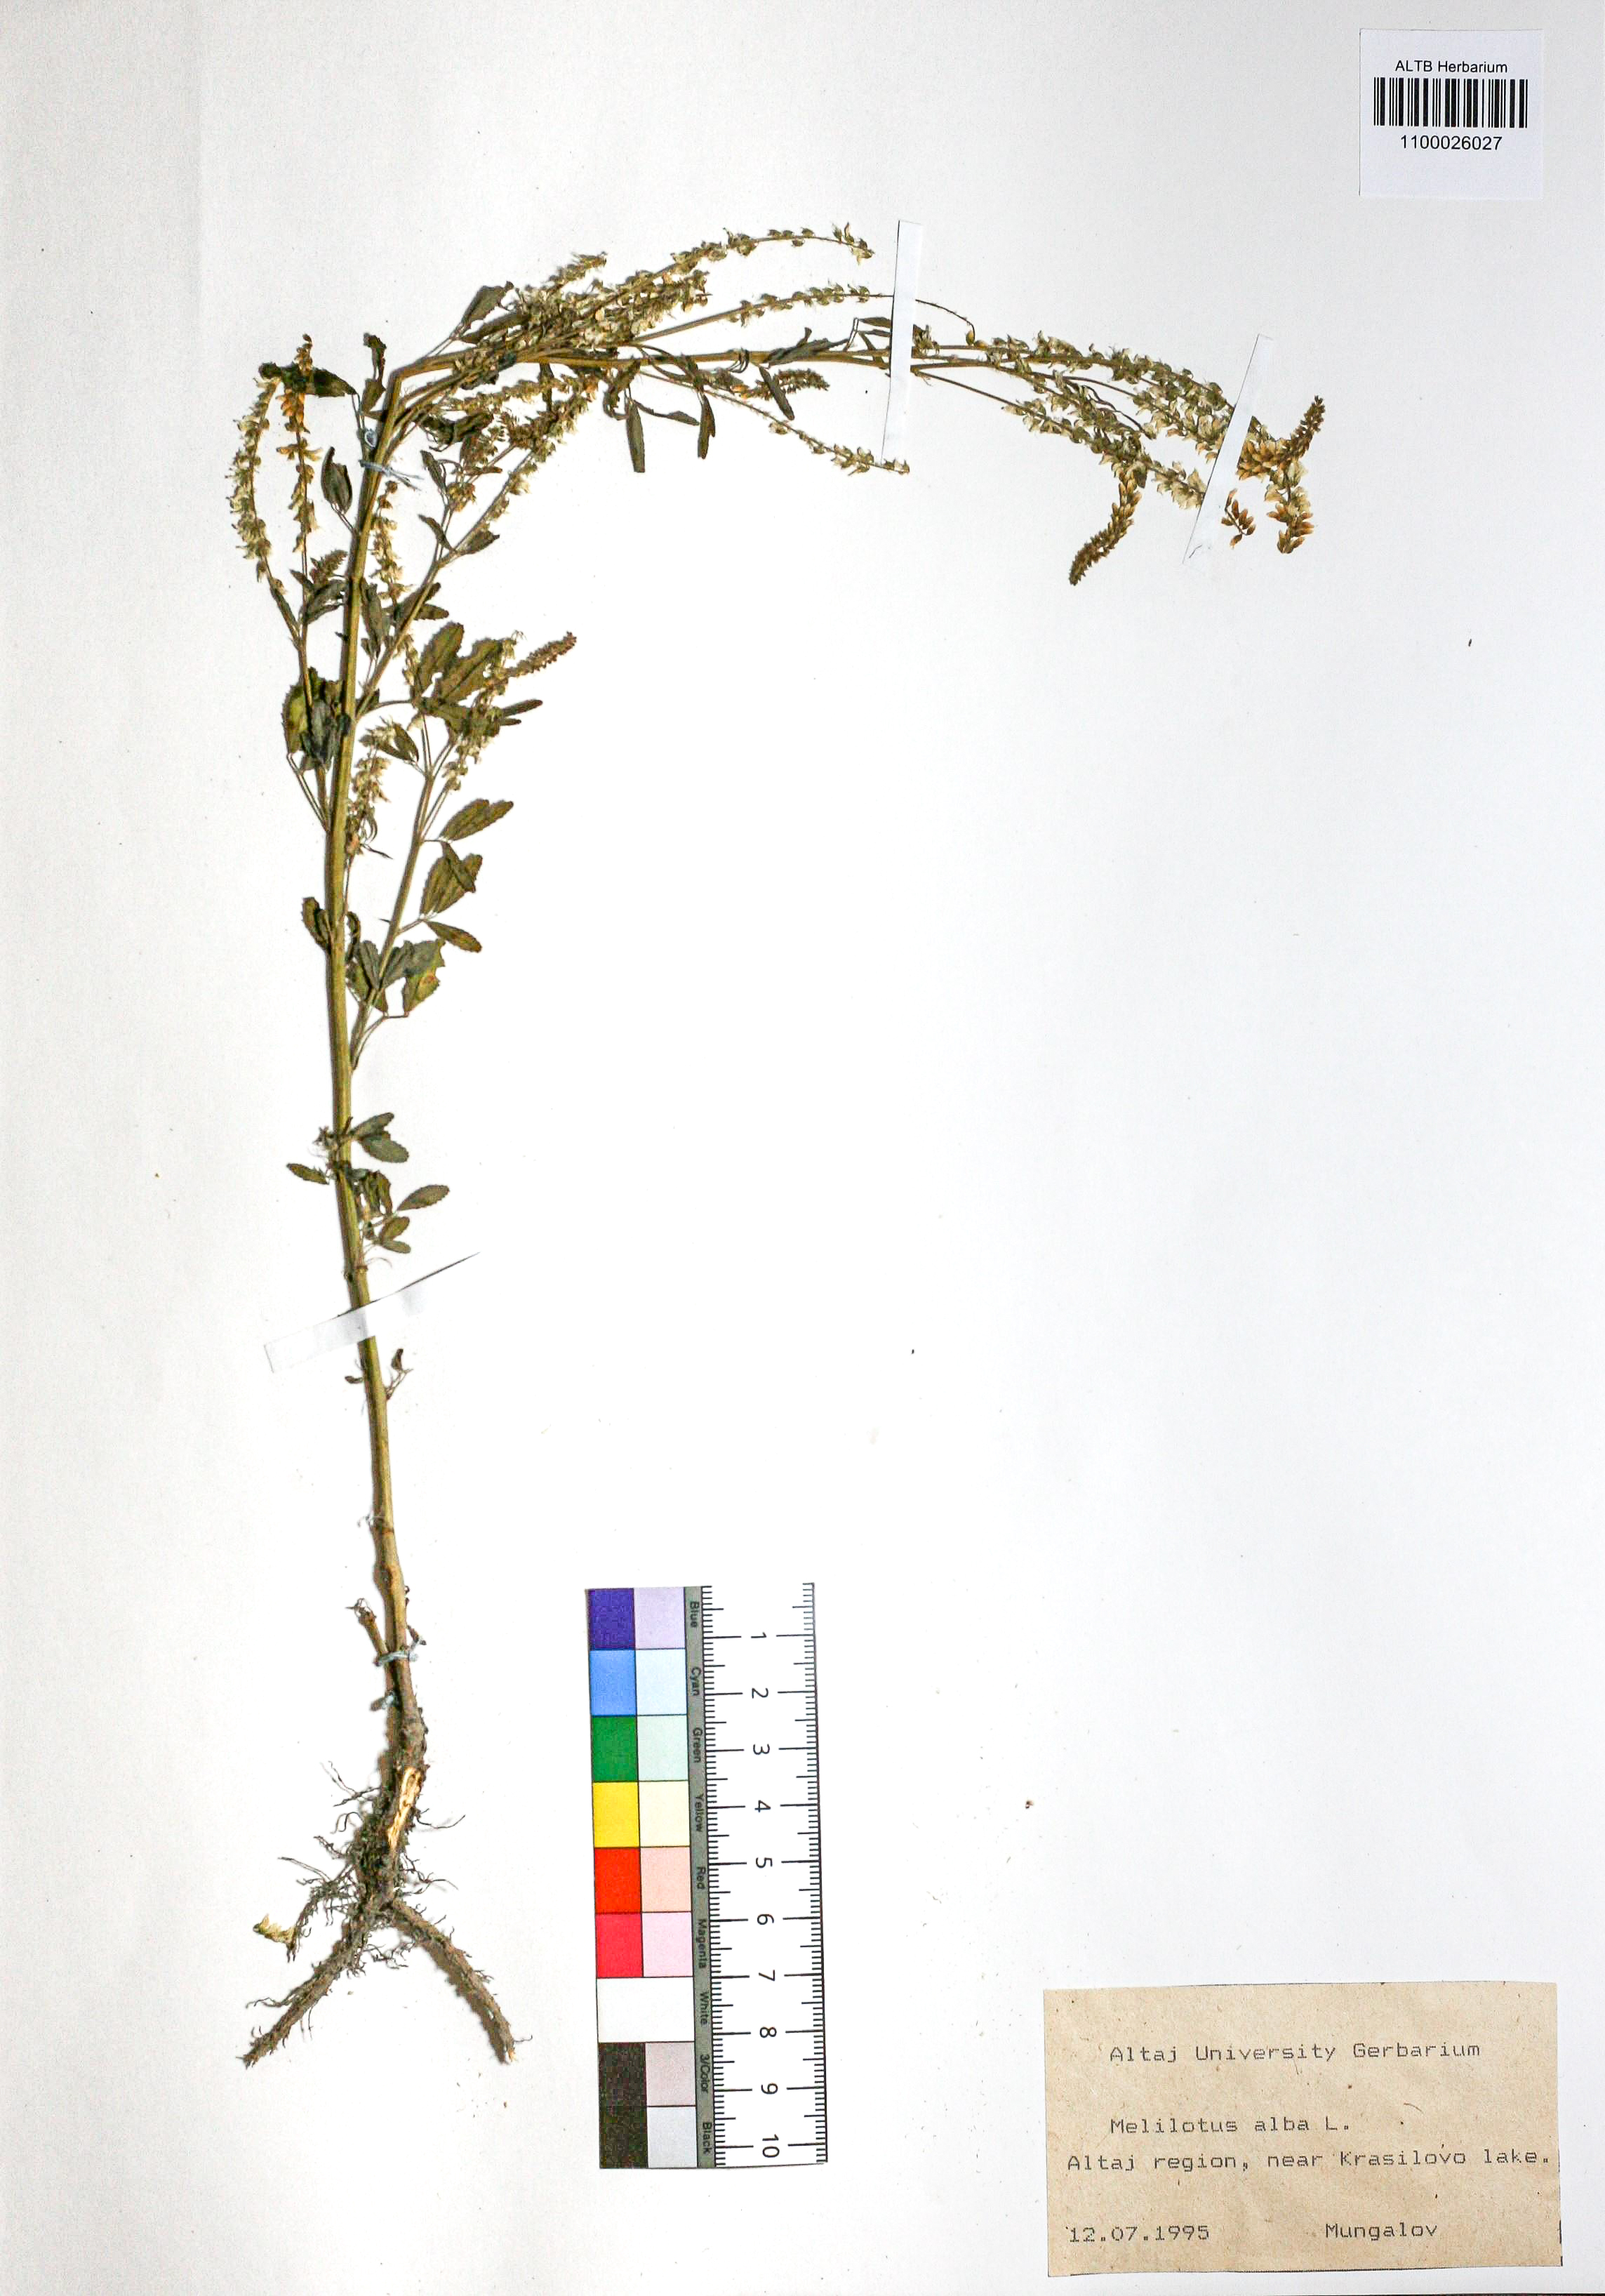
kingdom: Plantae
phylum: Tracheophyta
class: Magnoliopsida
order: Fabales
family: Fabaceae
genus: Melilotus
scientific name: Melilotus albus
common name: White melilot
